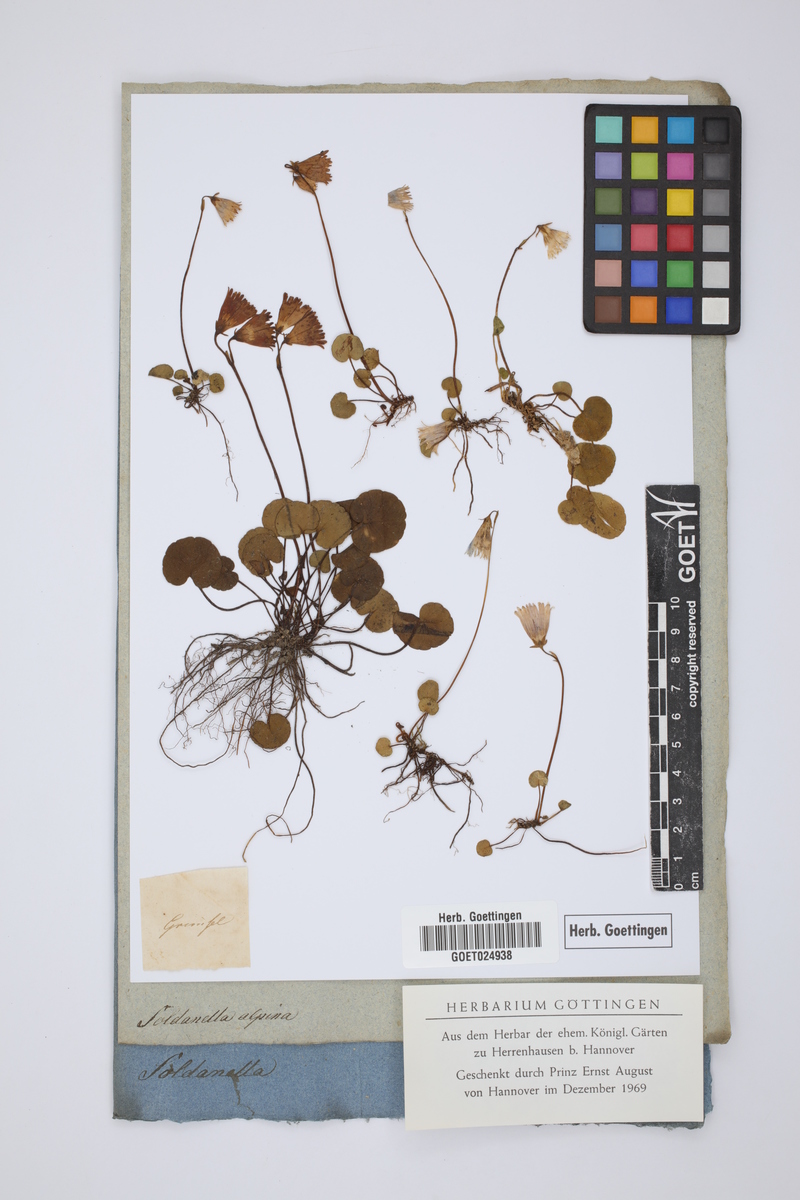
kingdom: Plantae
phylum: Tracheophyta
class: Magnoliopsida
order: Ericales
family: Primulaceae
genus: Soldanella
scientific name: Soldanella alpina
